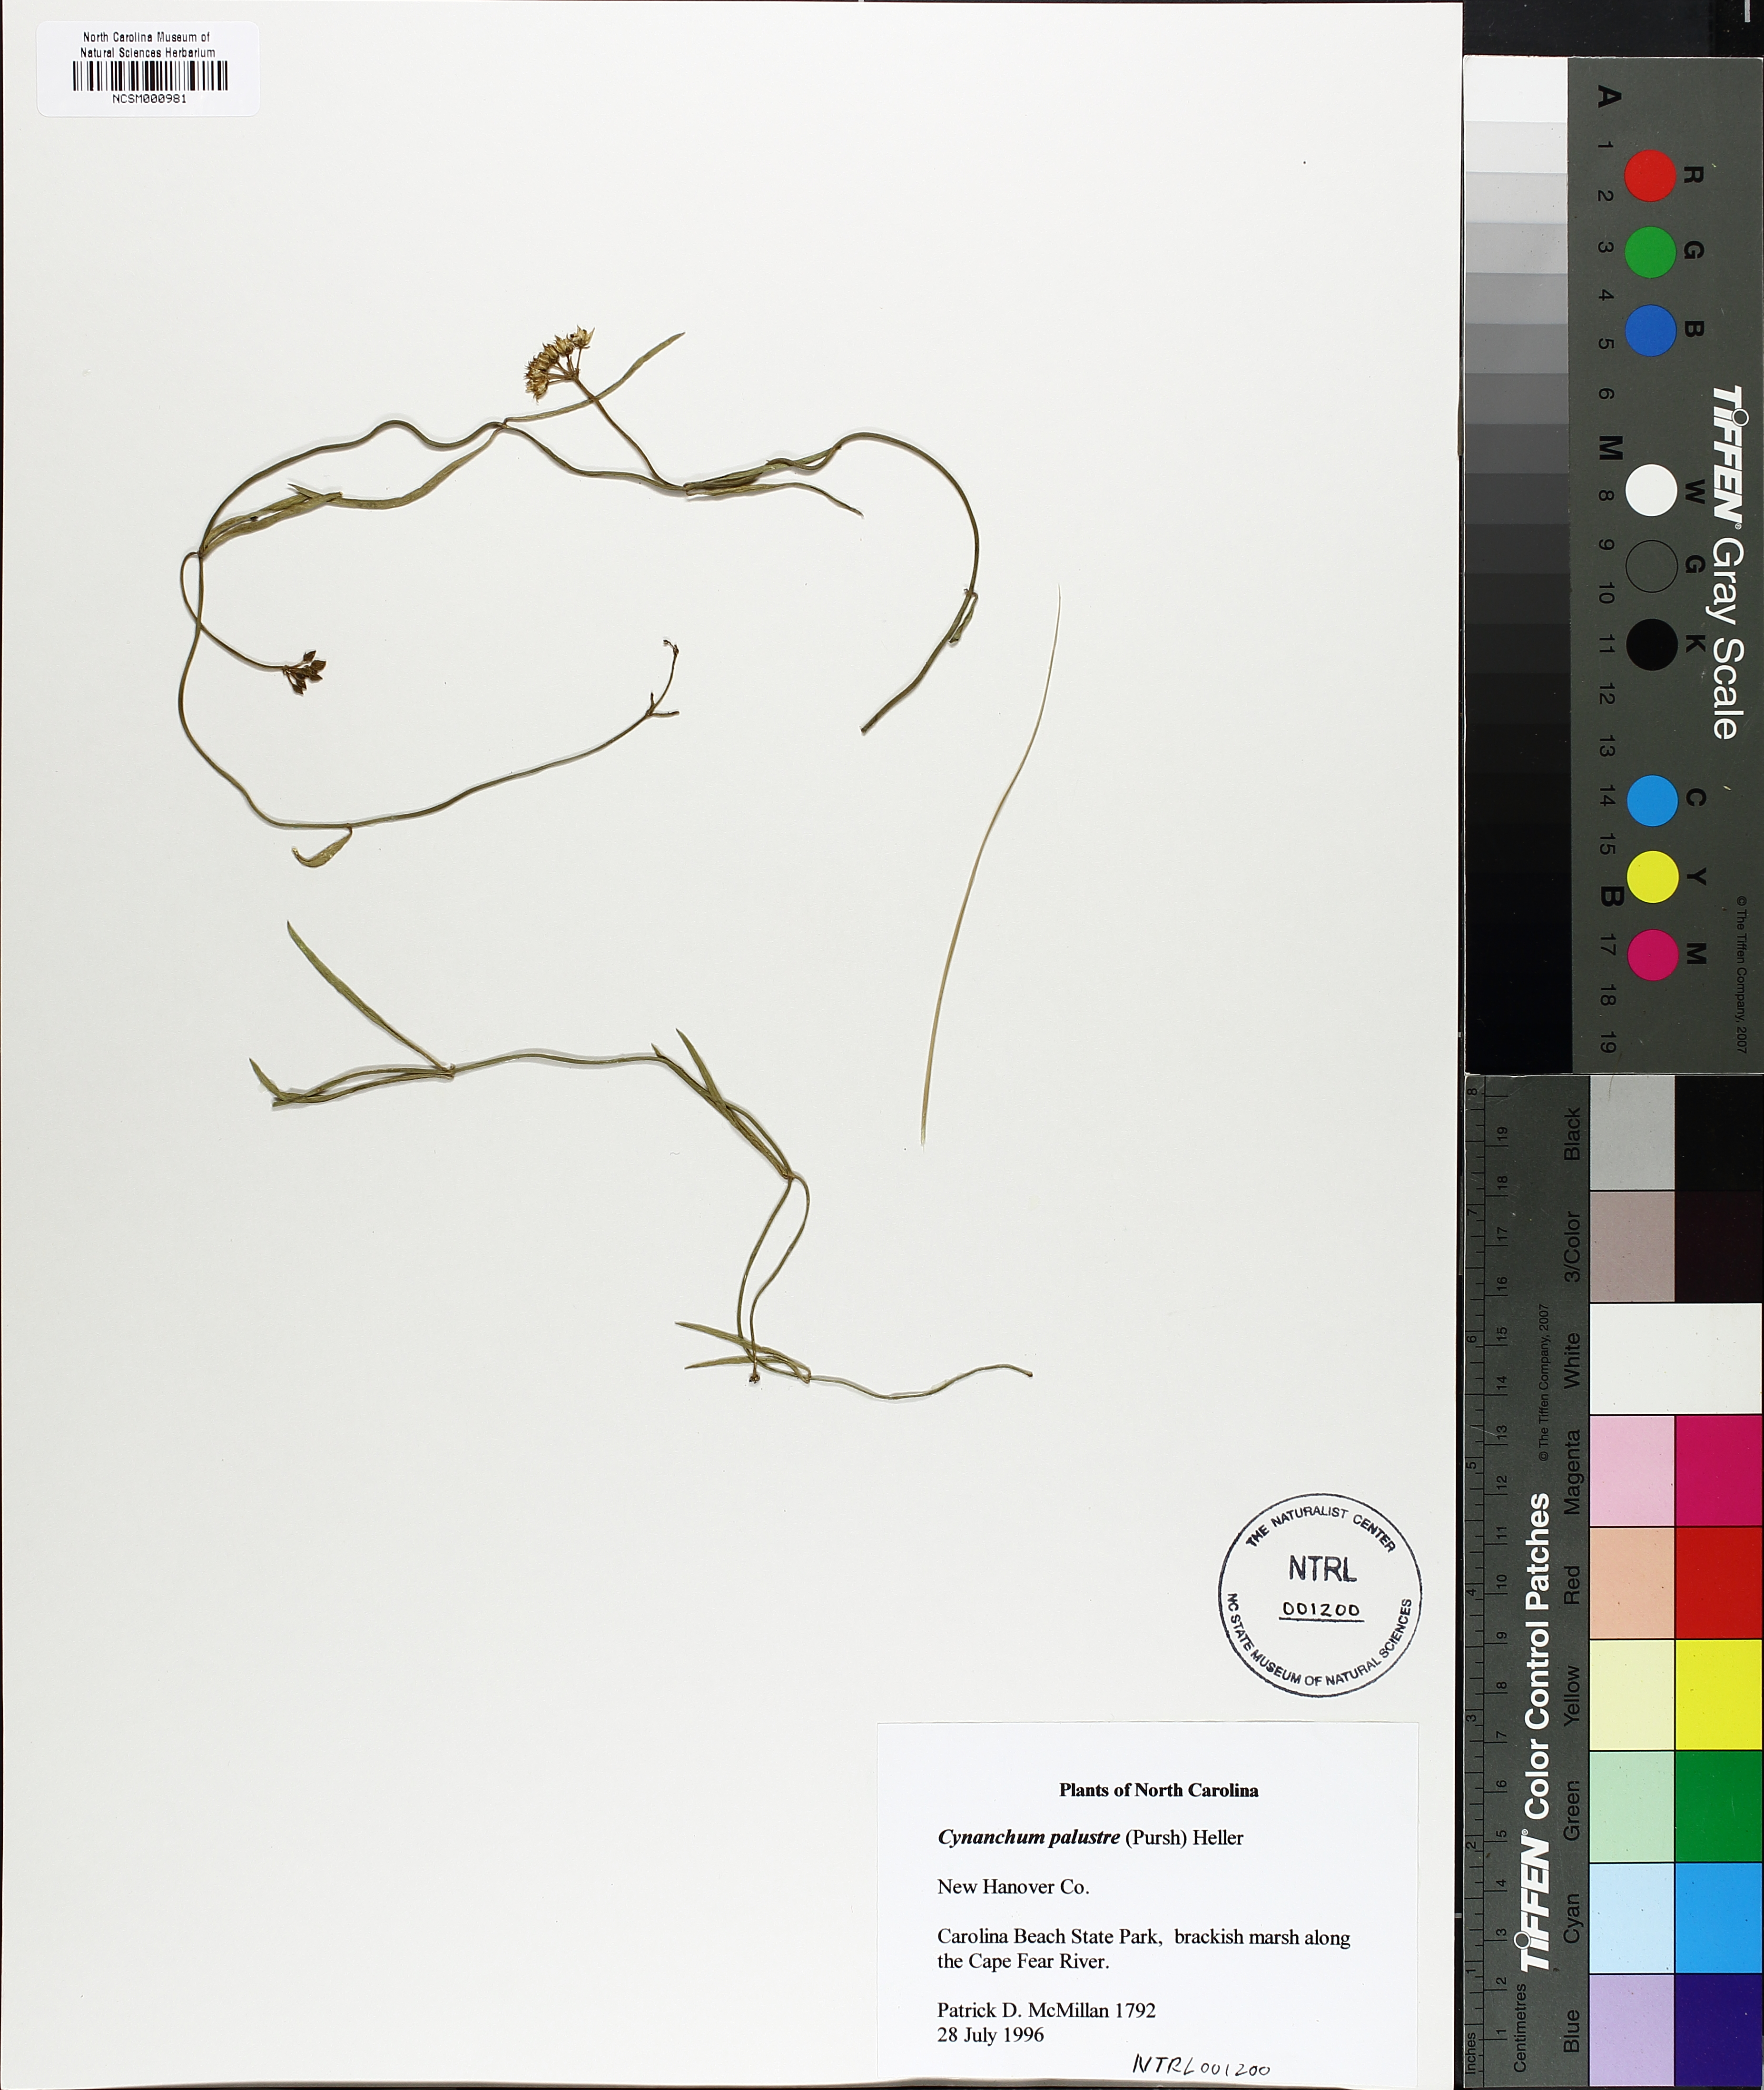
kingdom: Plantae
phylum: Tracheophyta
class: Magnoliopsida
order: Gentianales
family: Apocynaceae
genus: Pattalias
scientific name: Pattalias palustris
